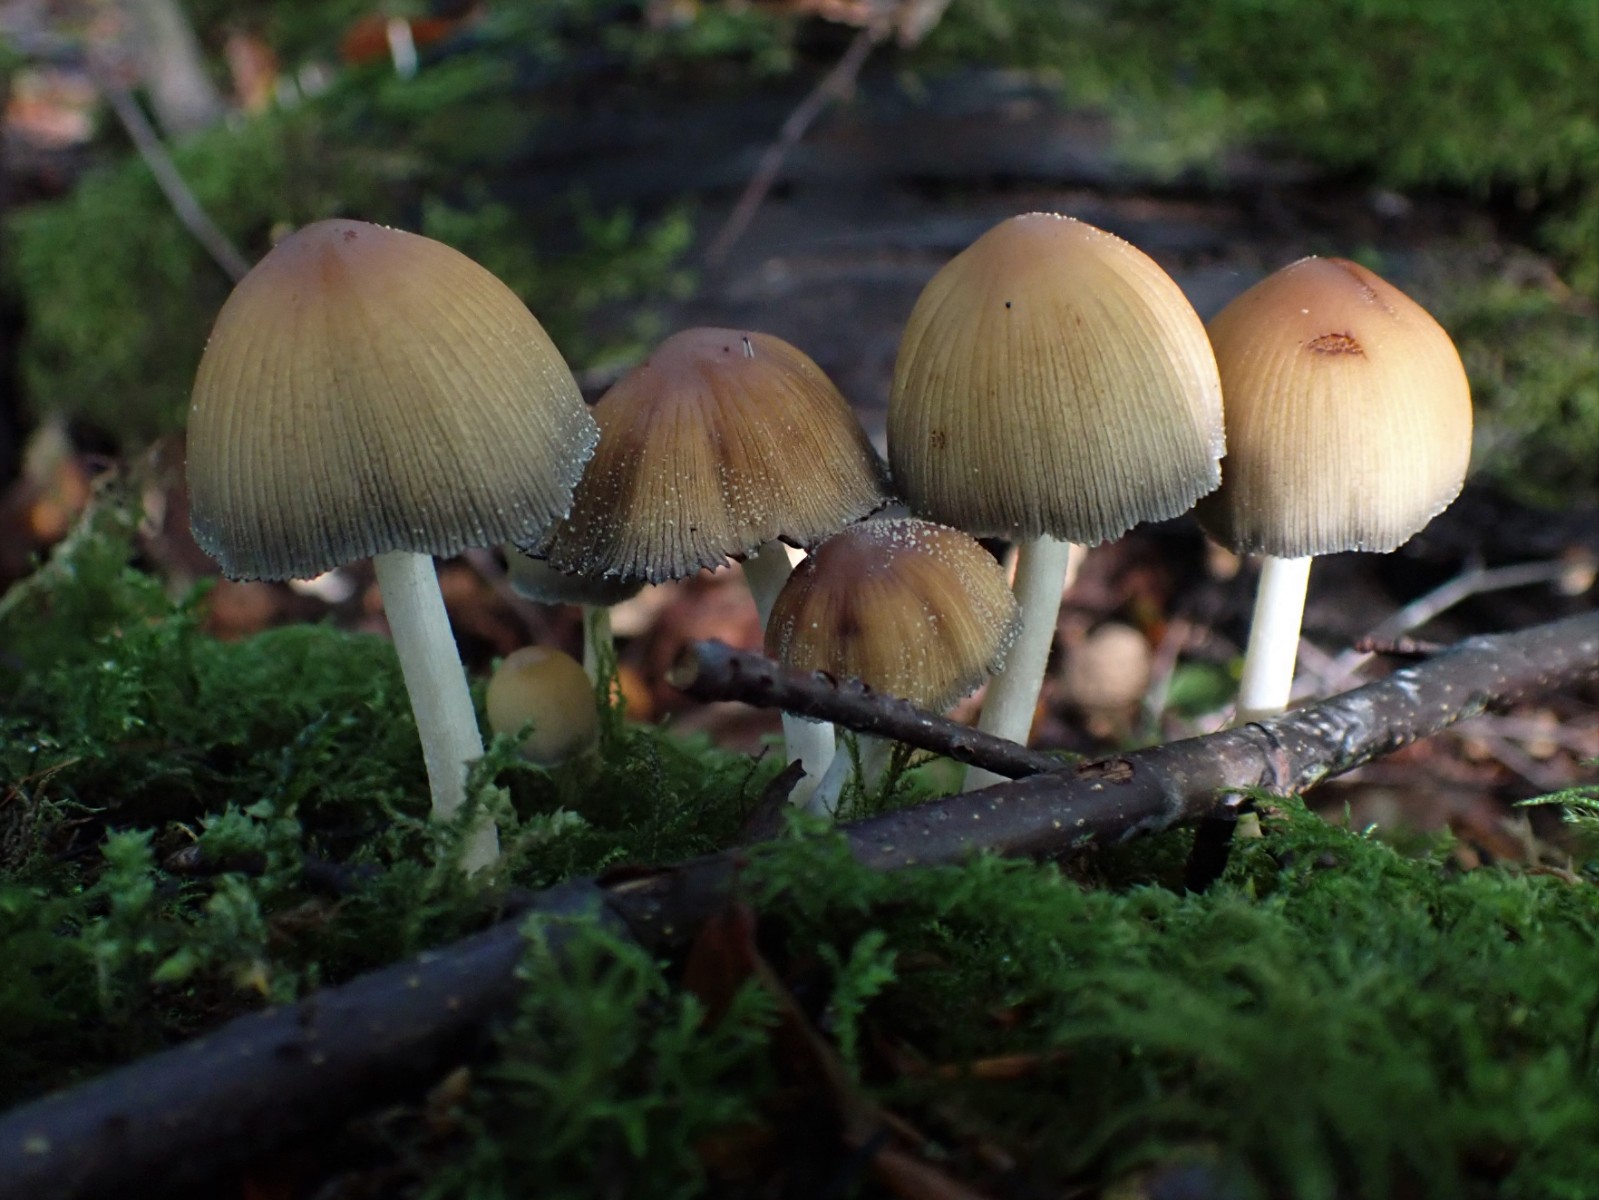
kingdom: Fungi
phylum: Basidiomycota
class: Agaricomycetes
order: Agaricales
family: Psathyrellaceae
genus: Coprinellus
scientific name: Coprinellus micaceus
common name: glimmer-blækhat
